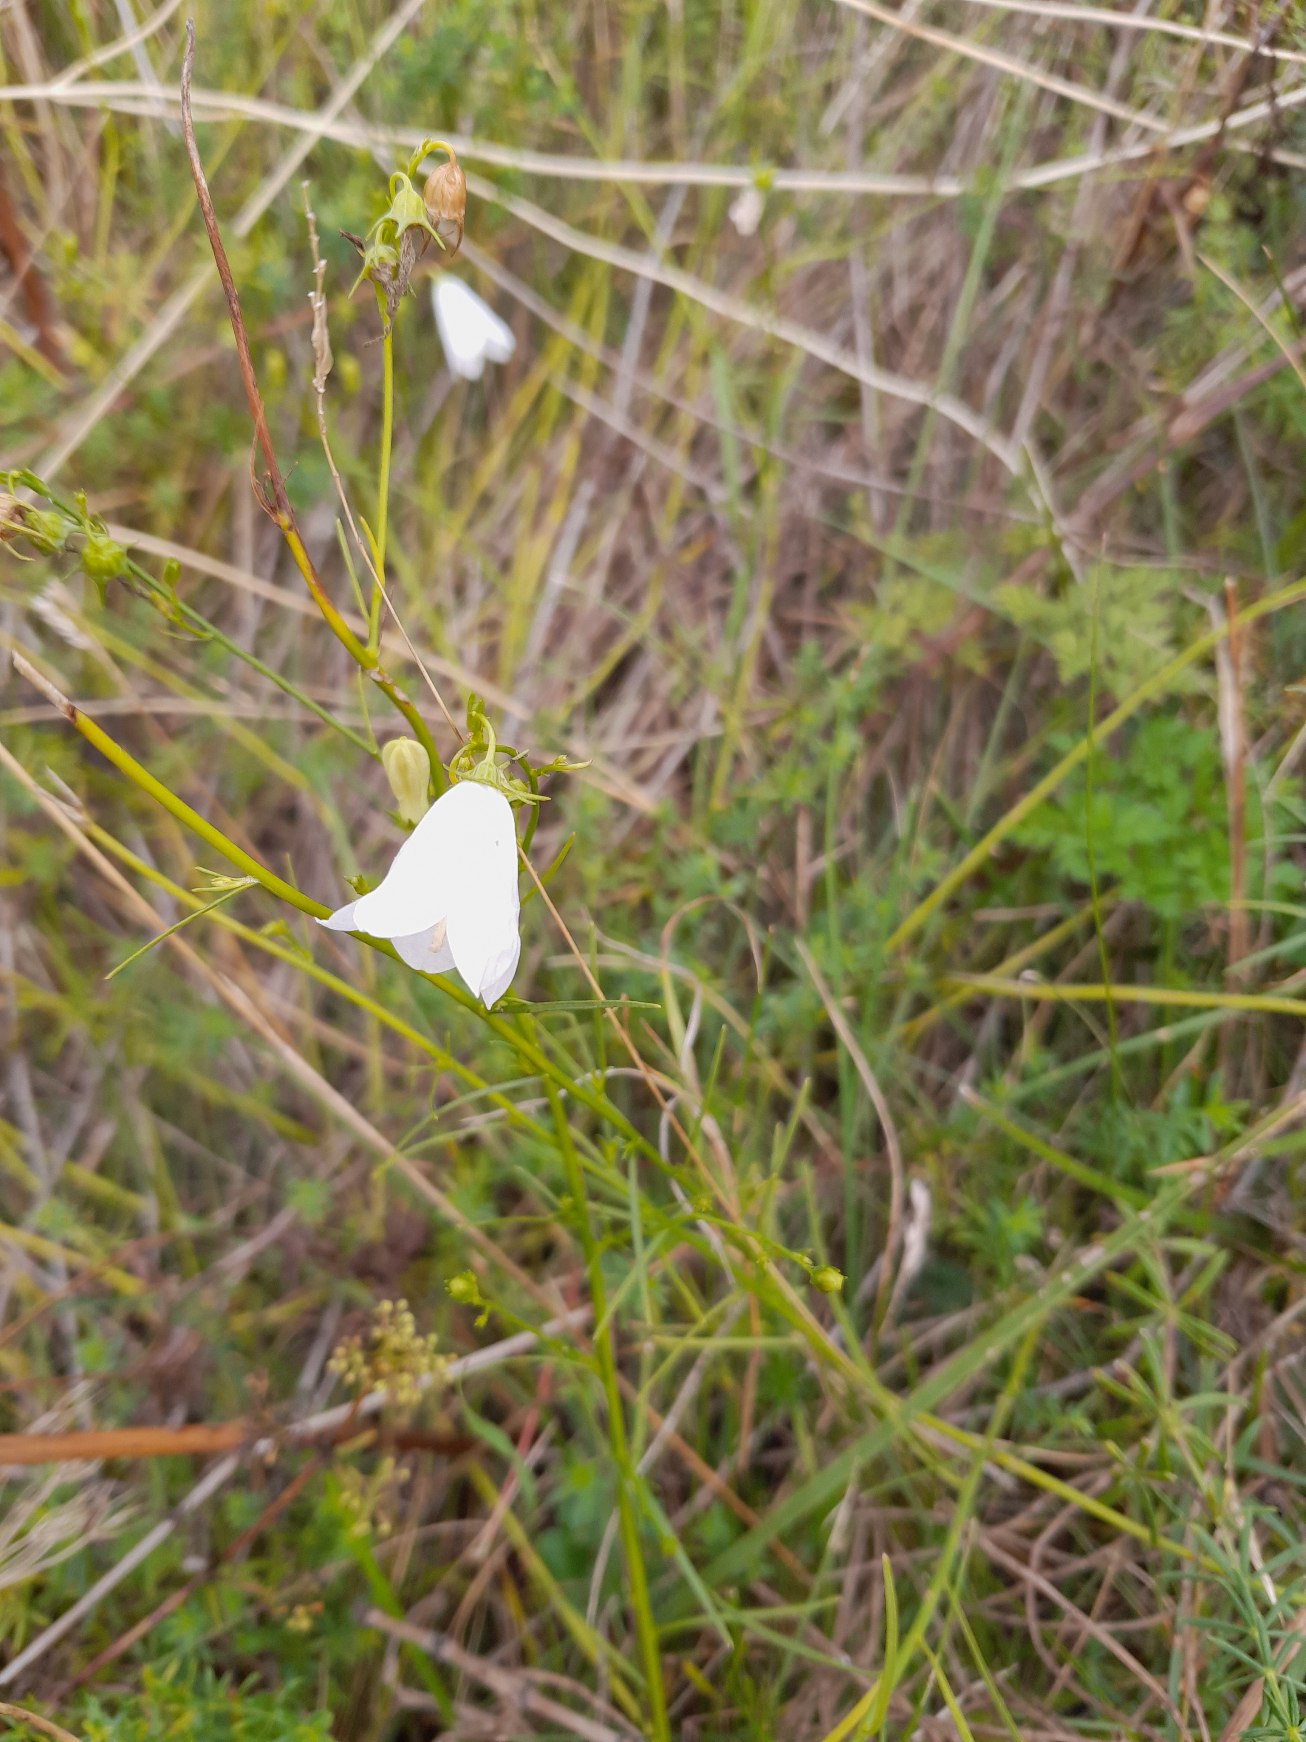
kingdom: Plantae
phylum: Tracheophyta
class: Magnoliopsida
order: Asterales
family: Campanulaceae
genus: Campanula
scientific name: Campanula rotundifolia
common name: Liden klokke
